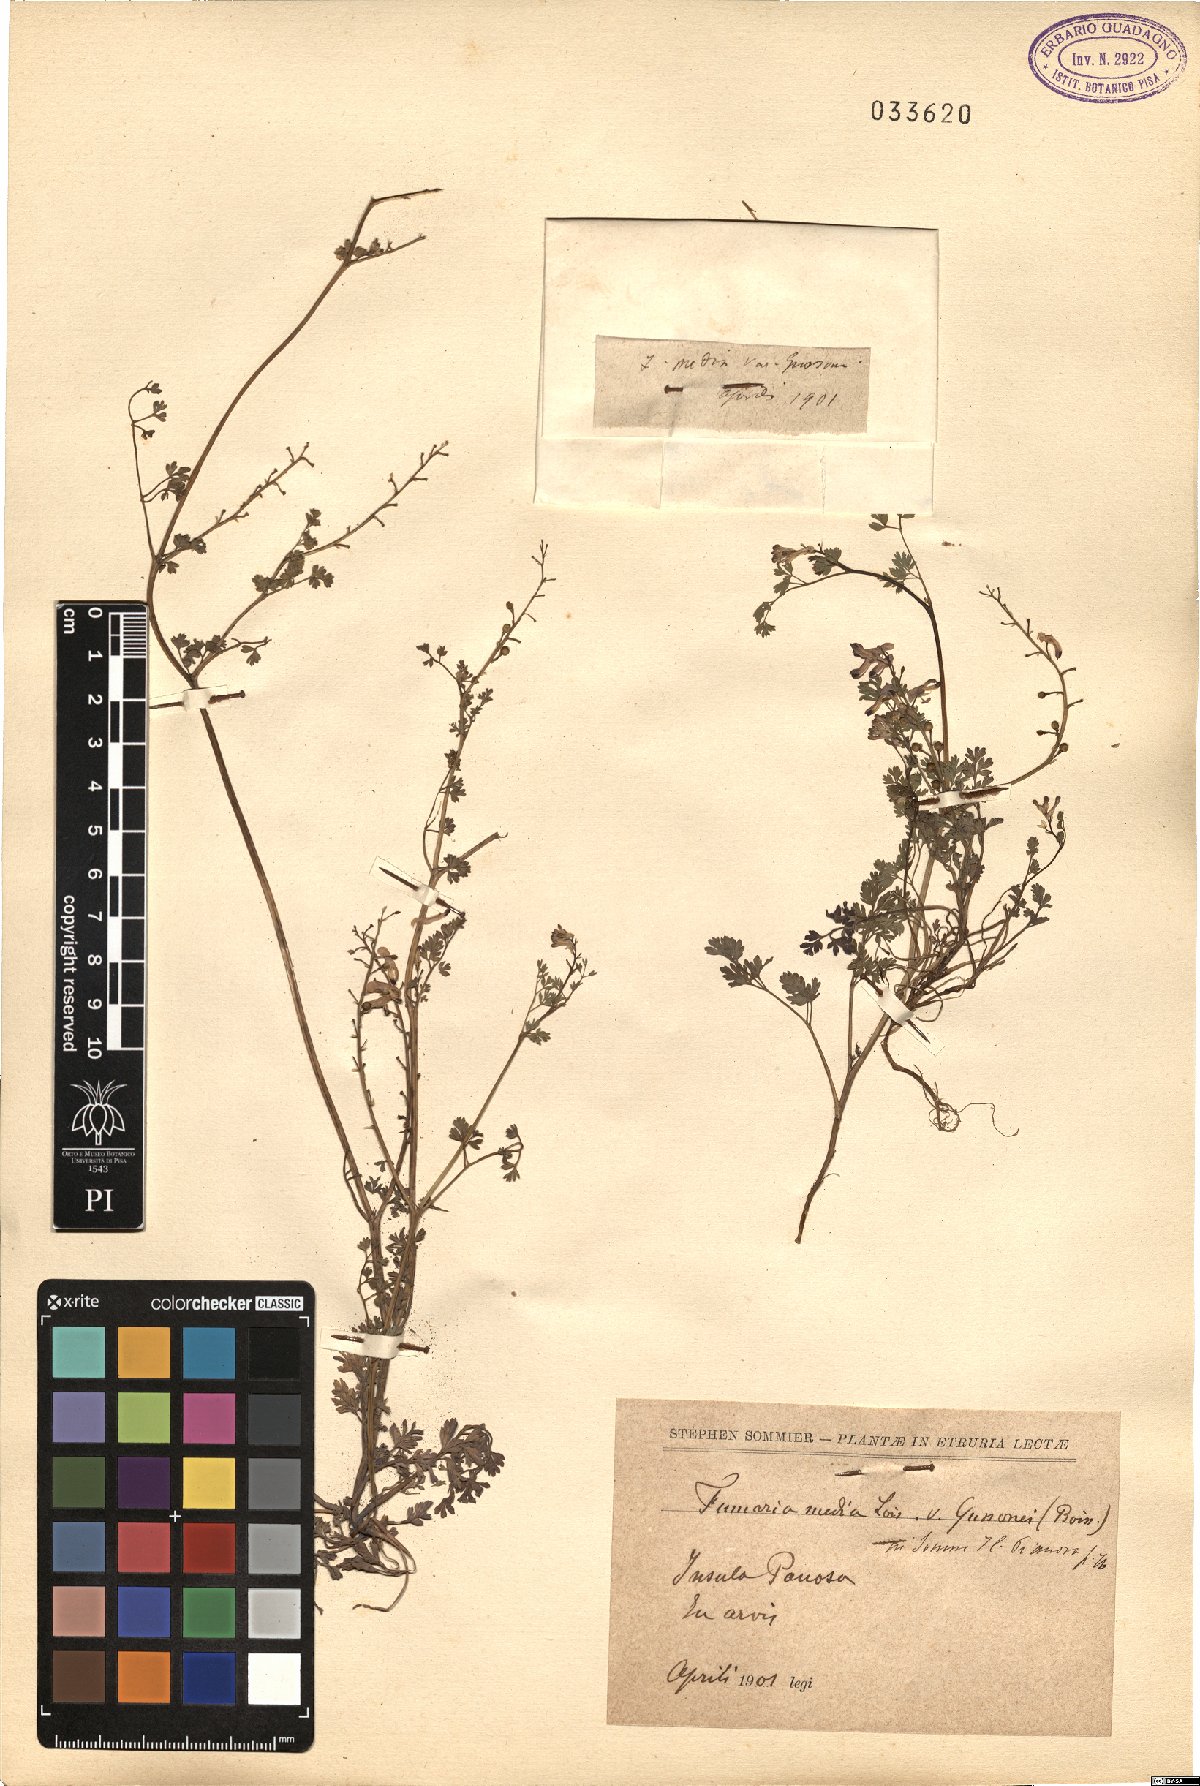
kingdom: Plantae
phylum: Tracheophyta
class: Magnoliopsida
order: Ranunculales
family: Papaveraceae
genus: Fumaria
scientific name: Fumaria bastardii
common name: Tall ramping-fumitory
